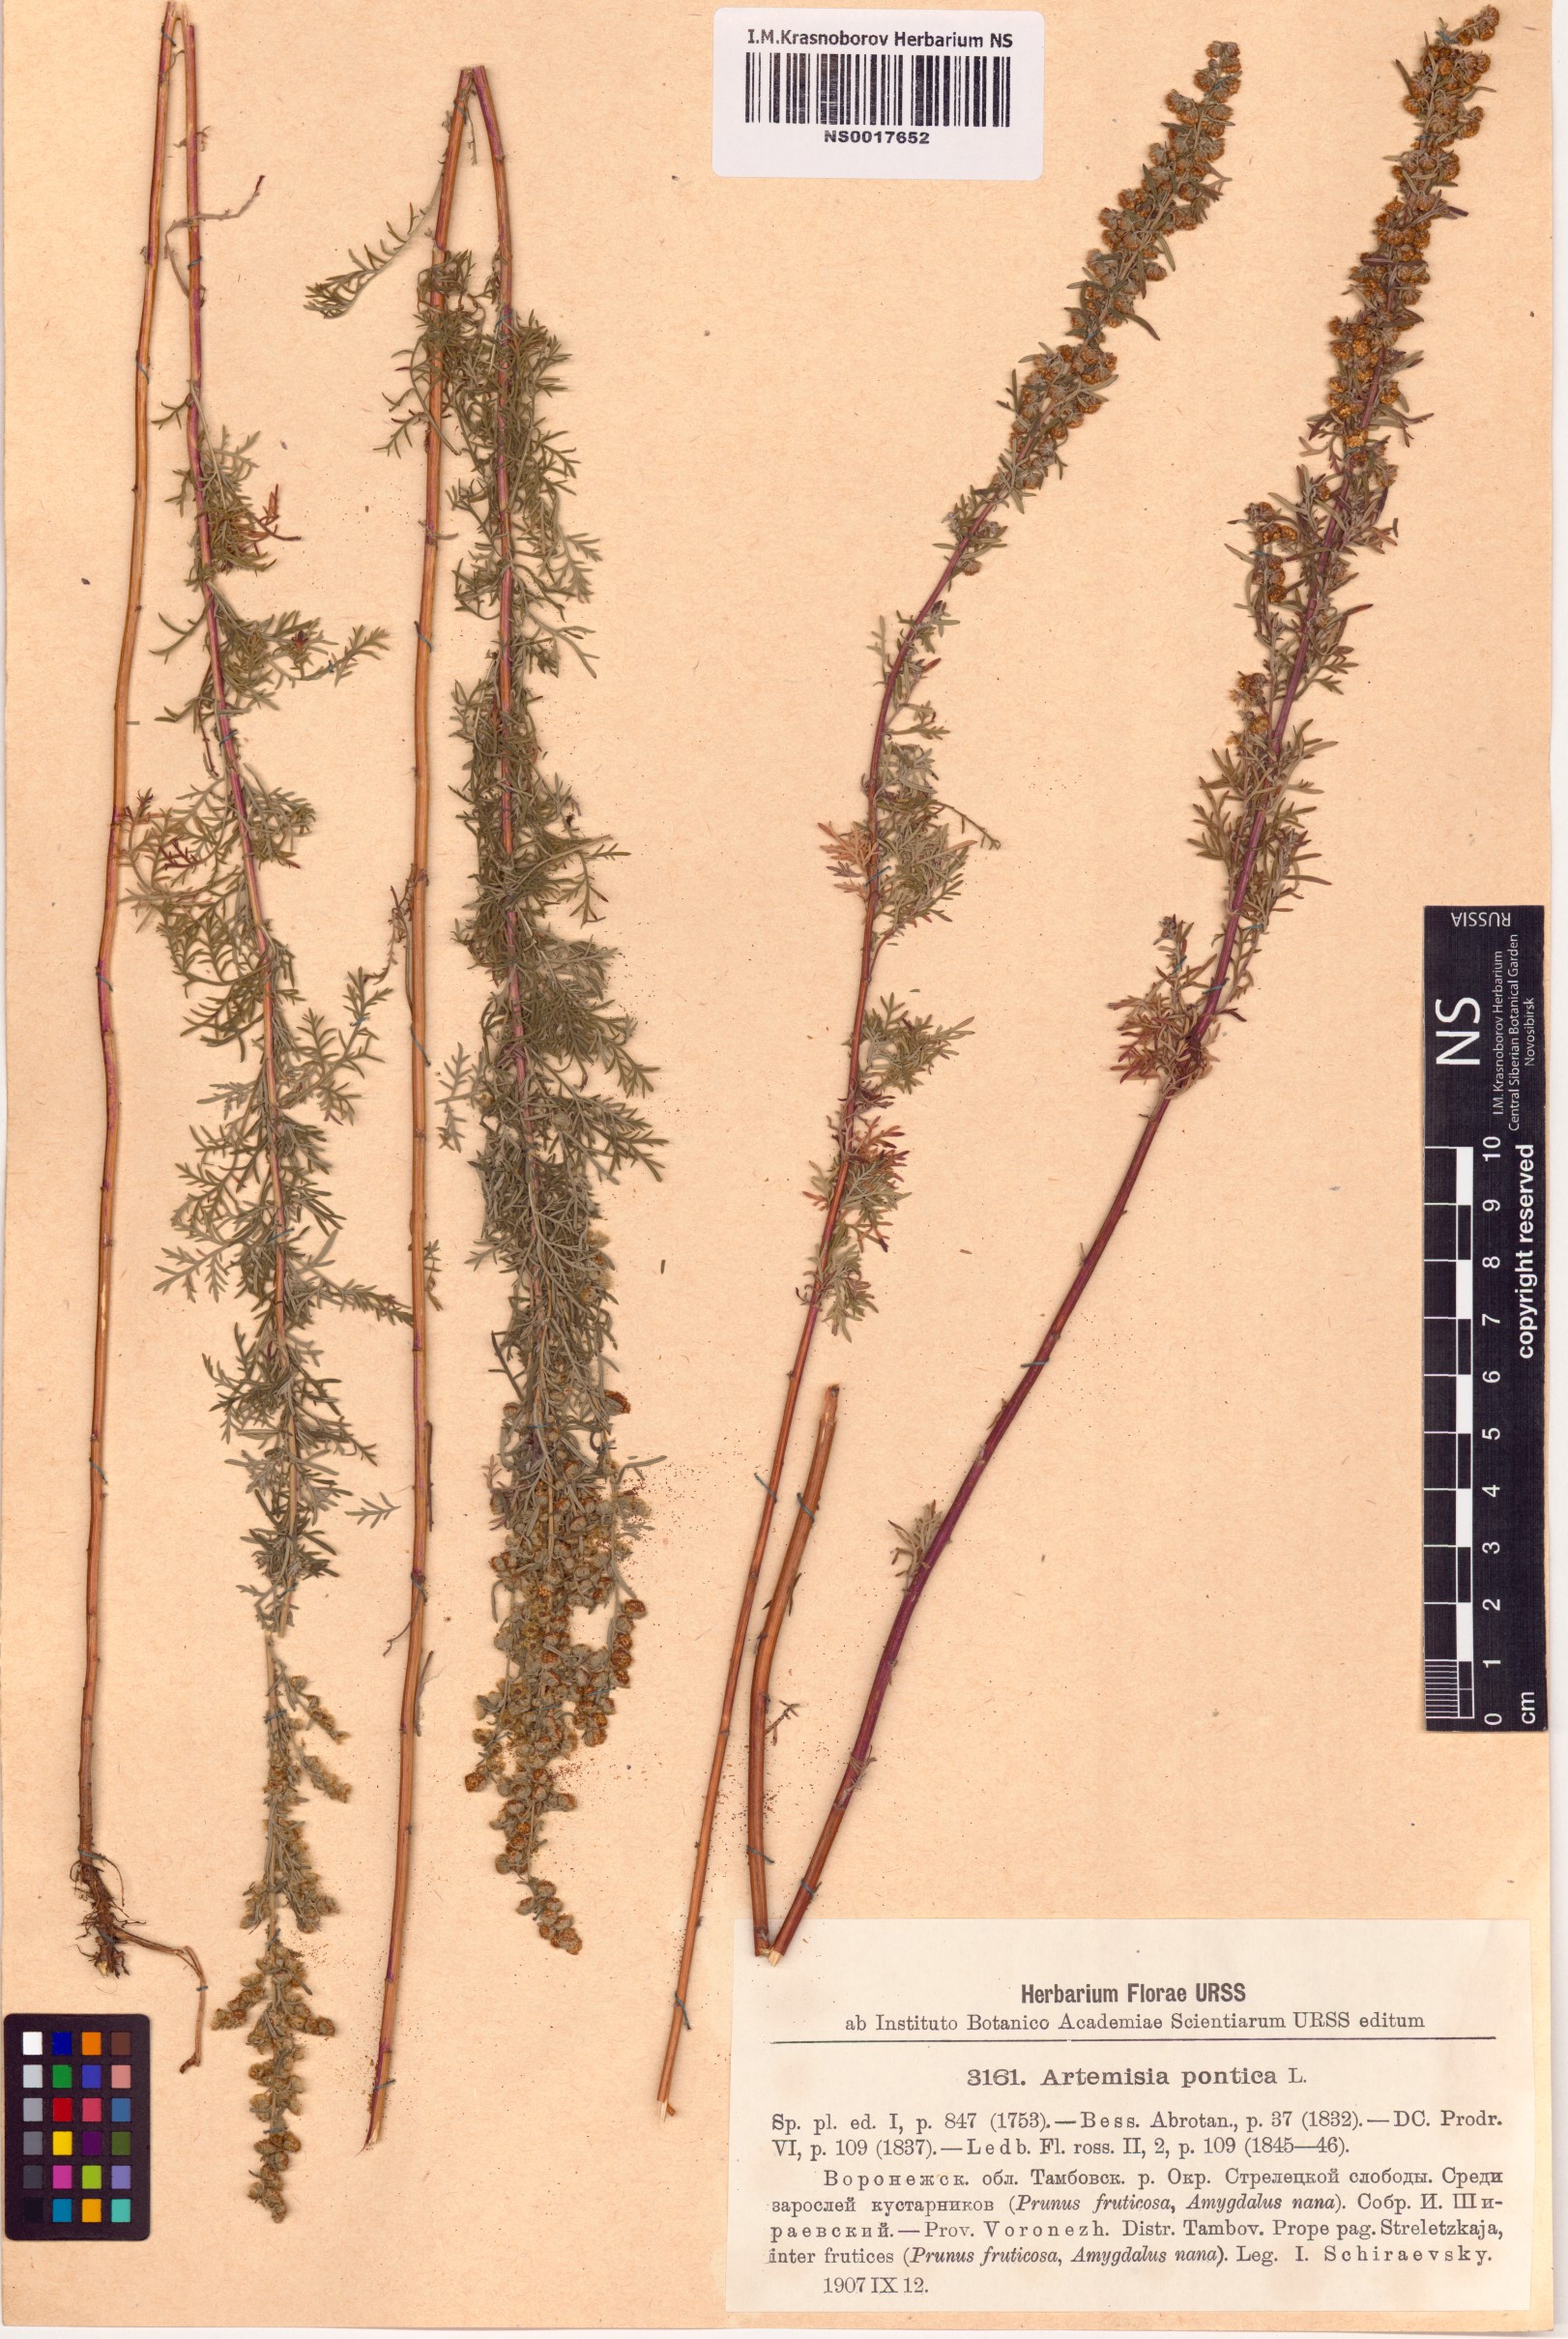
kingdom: Plantae
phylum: Tracheophyta
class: Magnoliopsida
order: Asterales
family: Asteraceae
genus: Artemisia
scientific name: Artemisia pontica
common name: Roman wormwood
